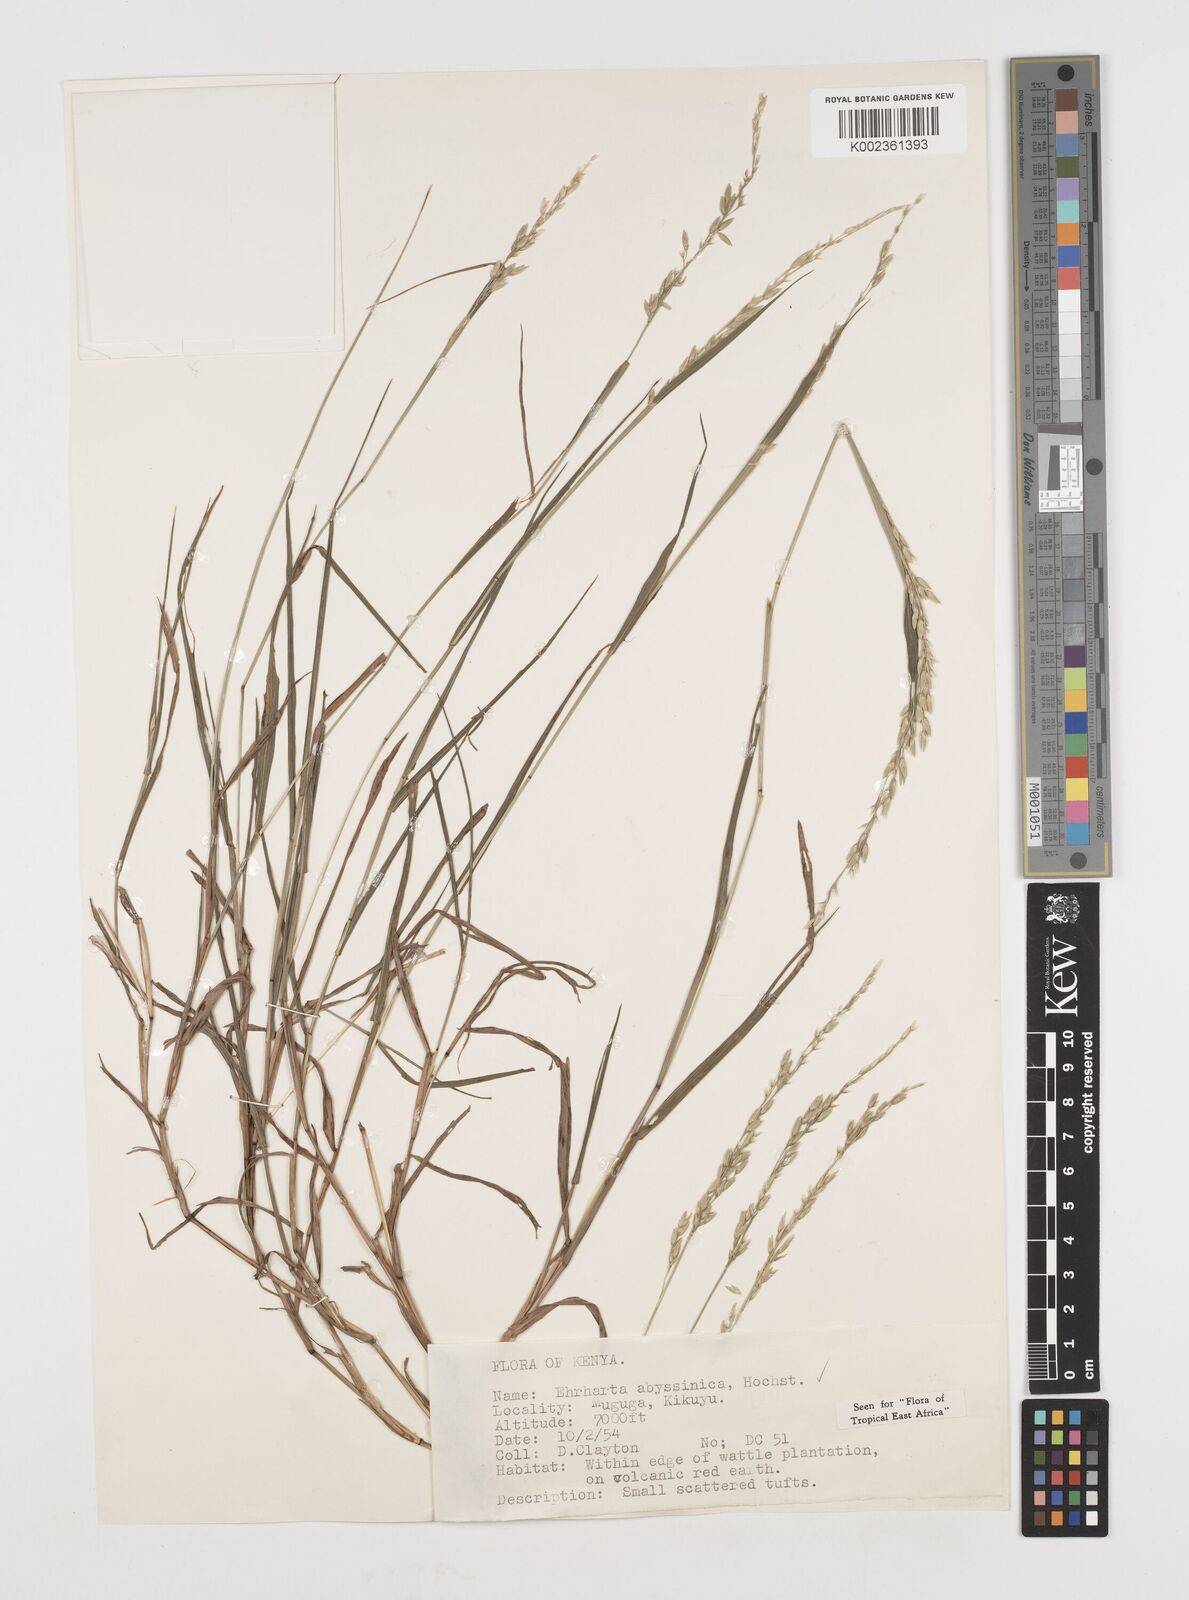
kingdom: Plantae
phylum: Tracheophyta
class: Liliopsida
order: Poales
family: Poaceae
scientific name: Poaceae
